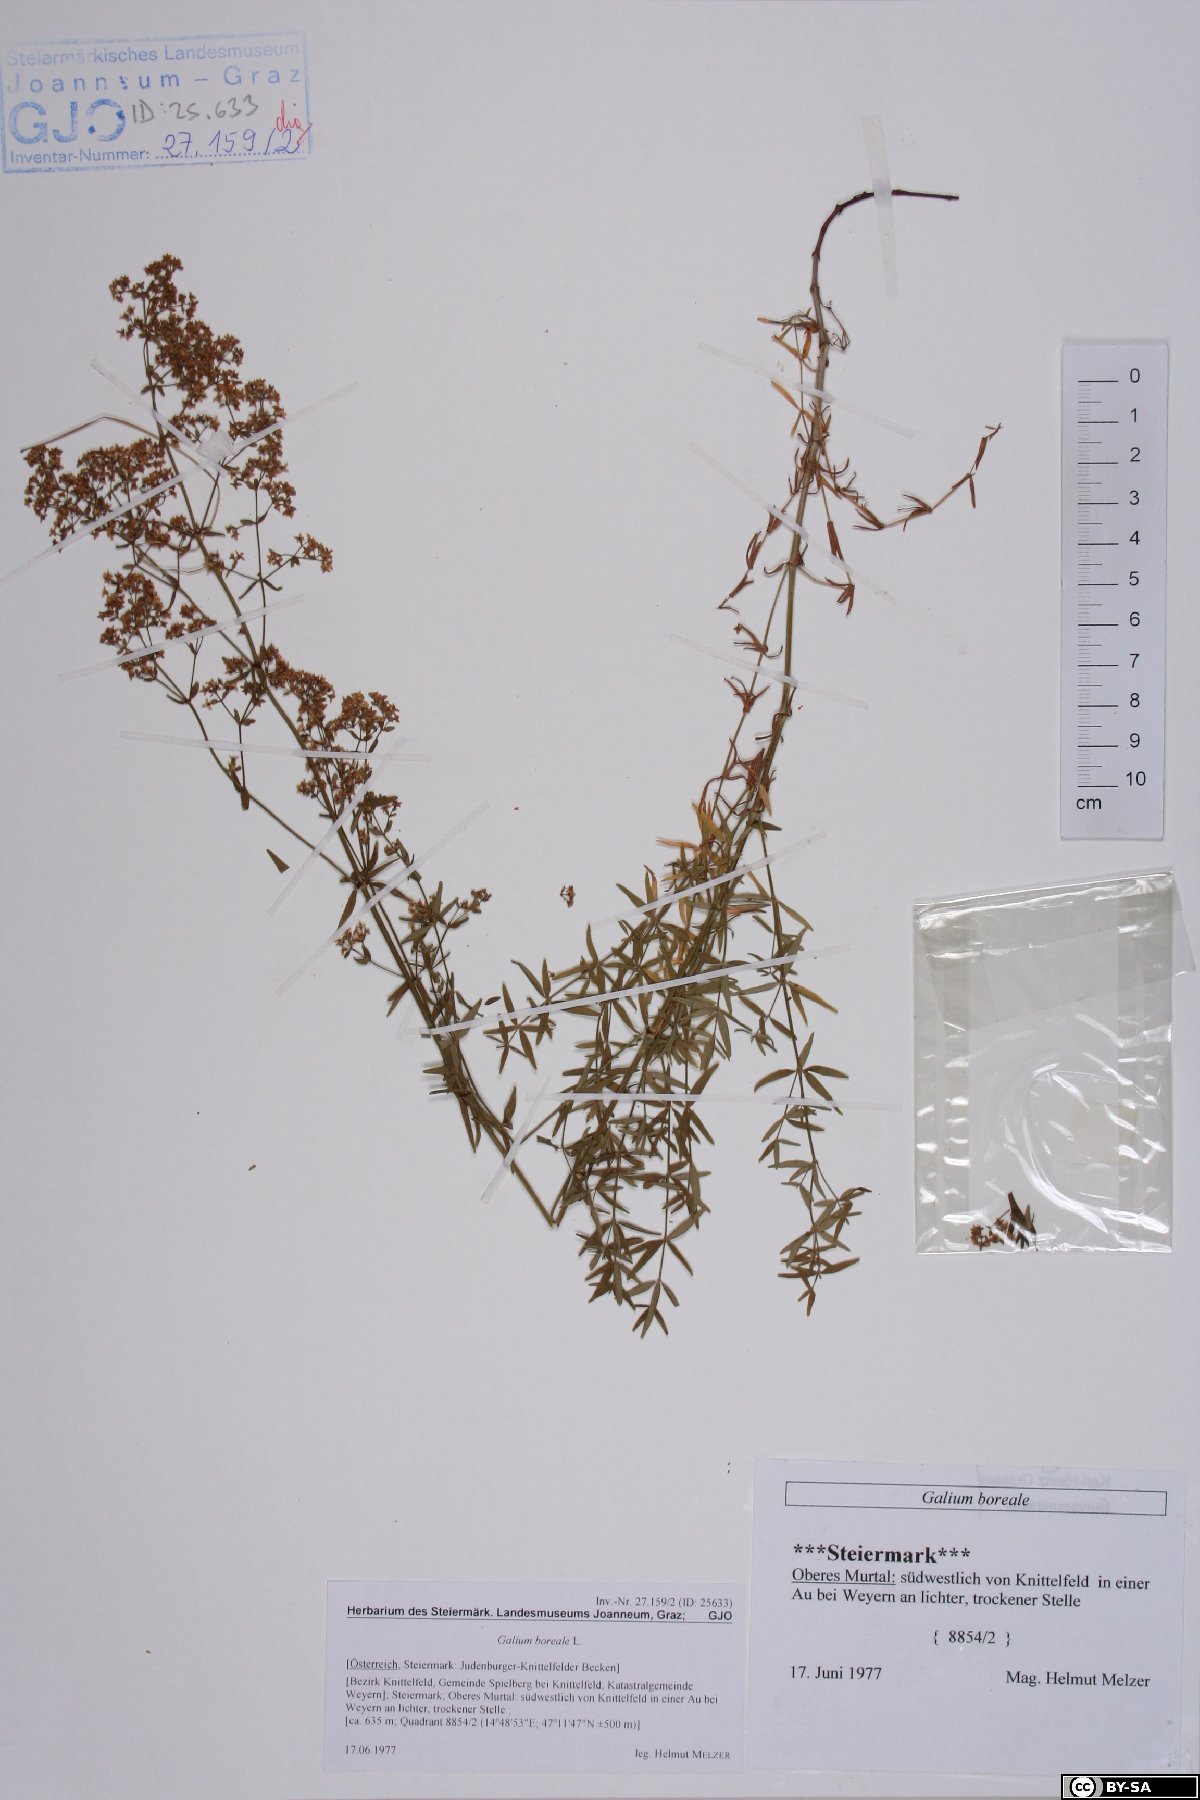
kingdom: Plantae
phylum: Tracheophyta
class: Magnoliopsida
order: Gentianales
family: Rubiaceae
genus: Galium
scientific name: Galium boreale
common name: Northern bedstraw
